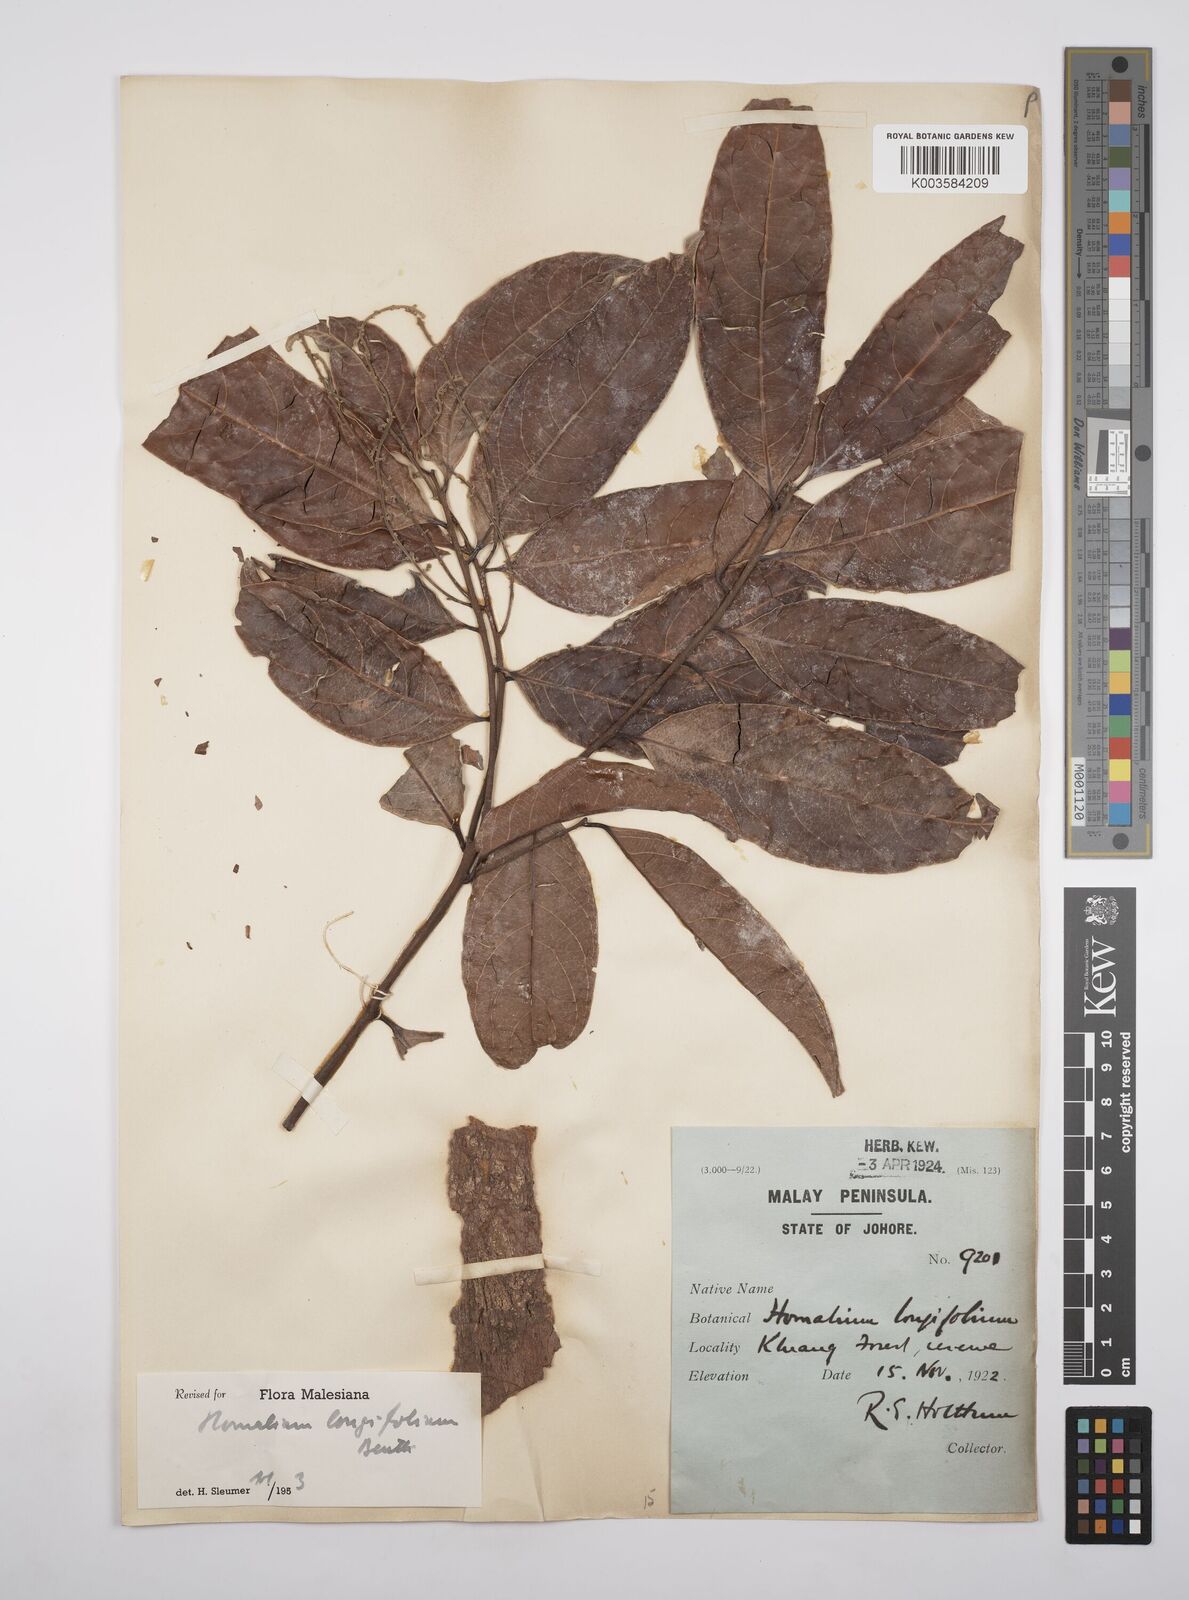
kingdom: Plantae
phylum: Tracheophyta
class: Magnoliopsida
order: Malpighiales
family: Salicaceae
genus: Homalium
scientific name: Homalium longifolium
